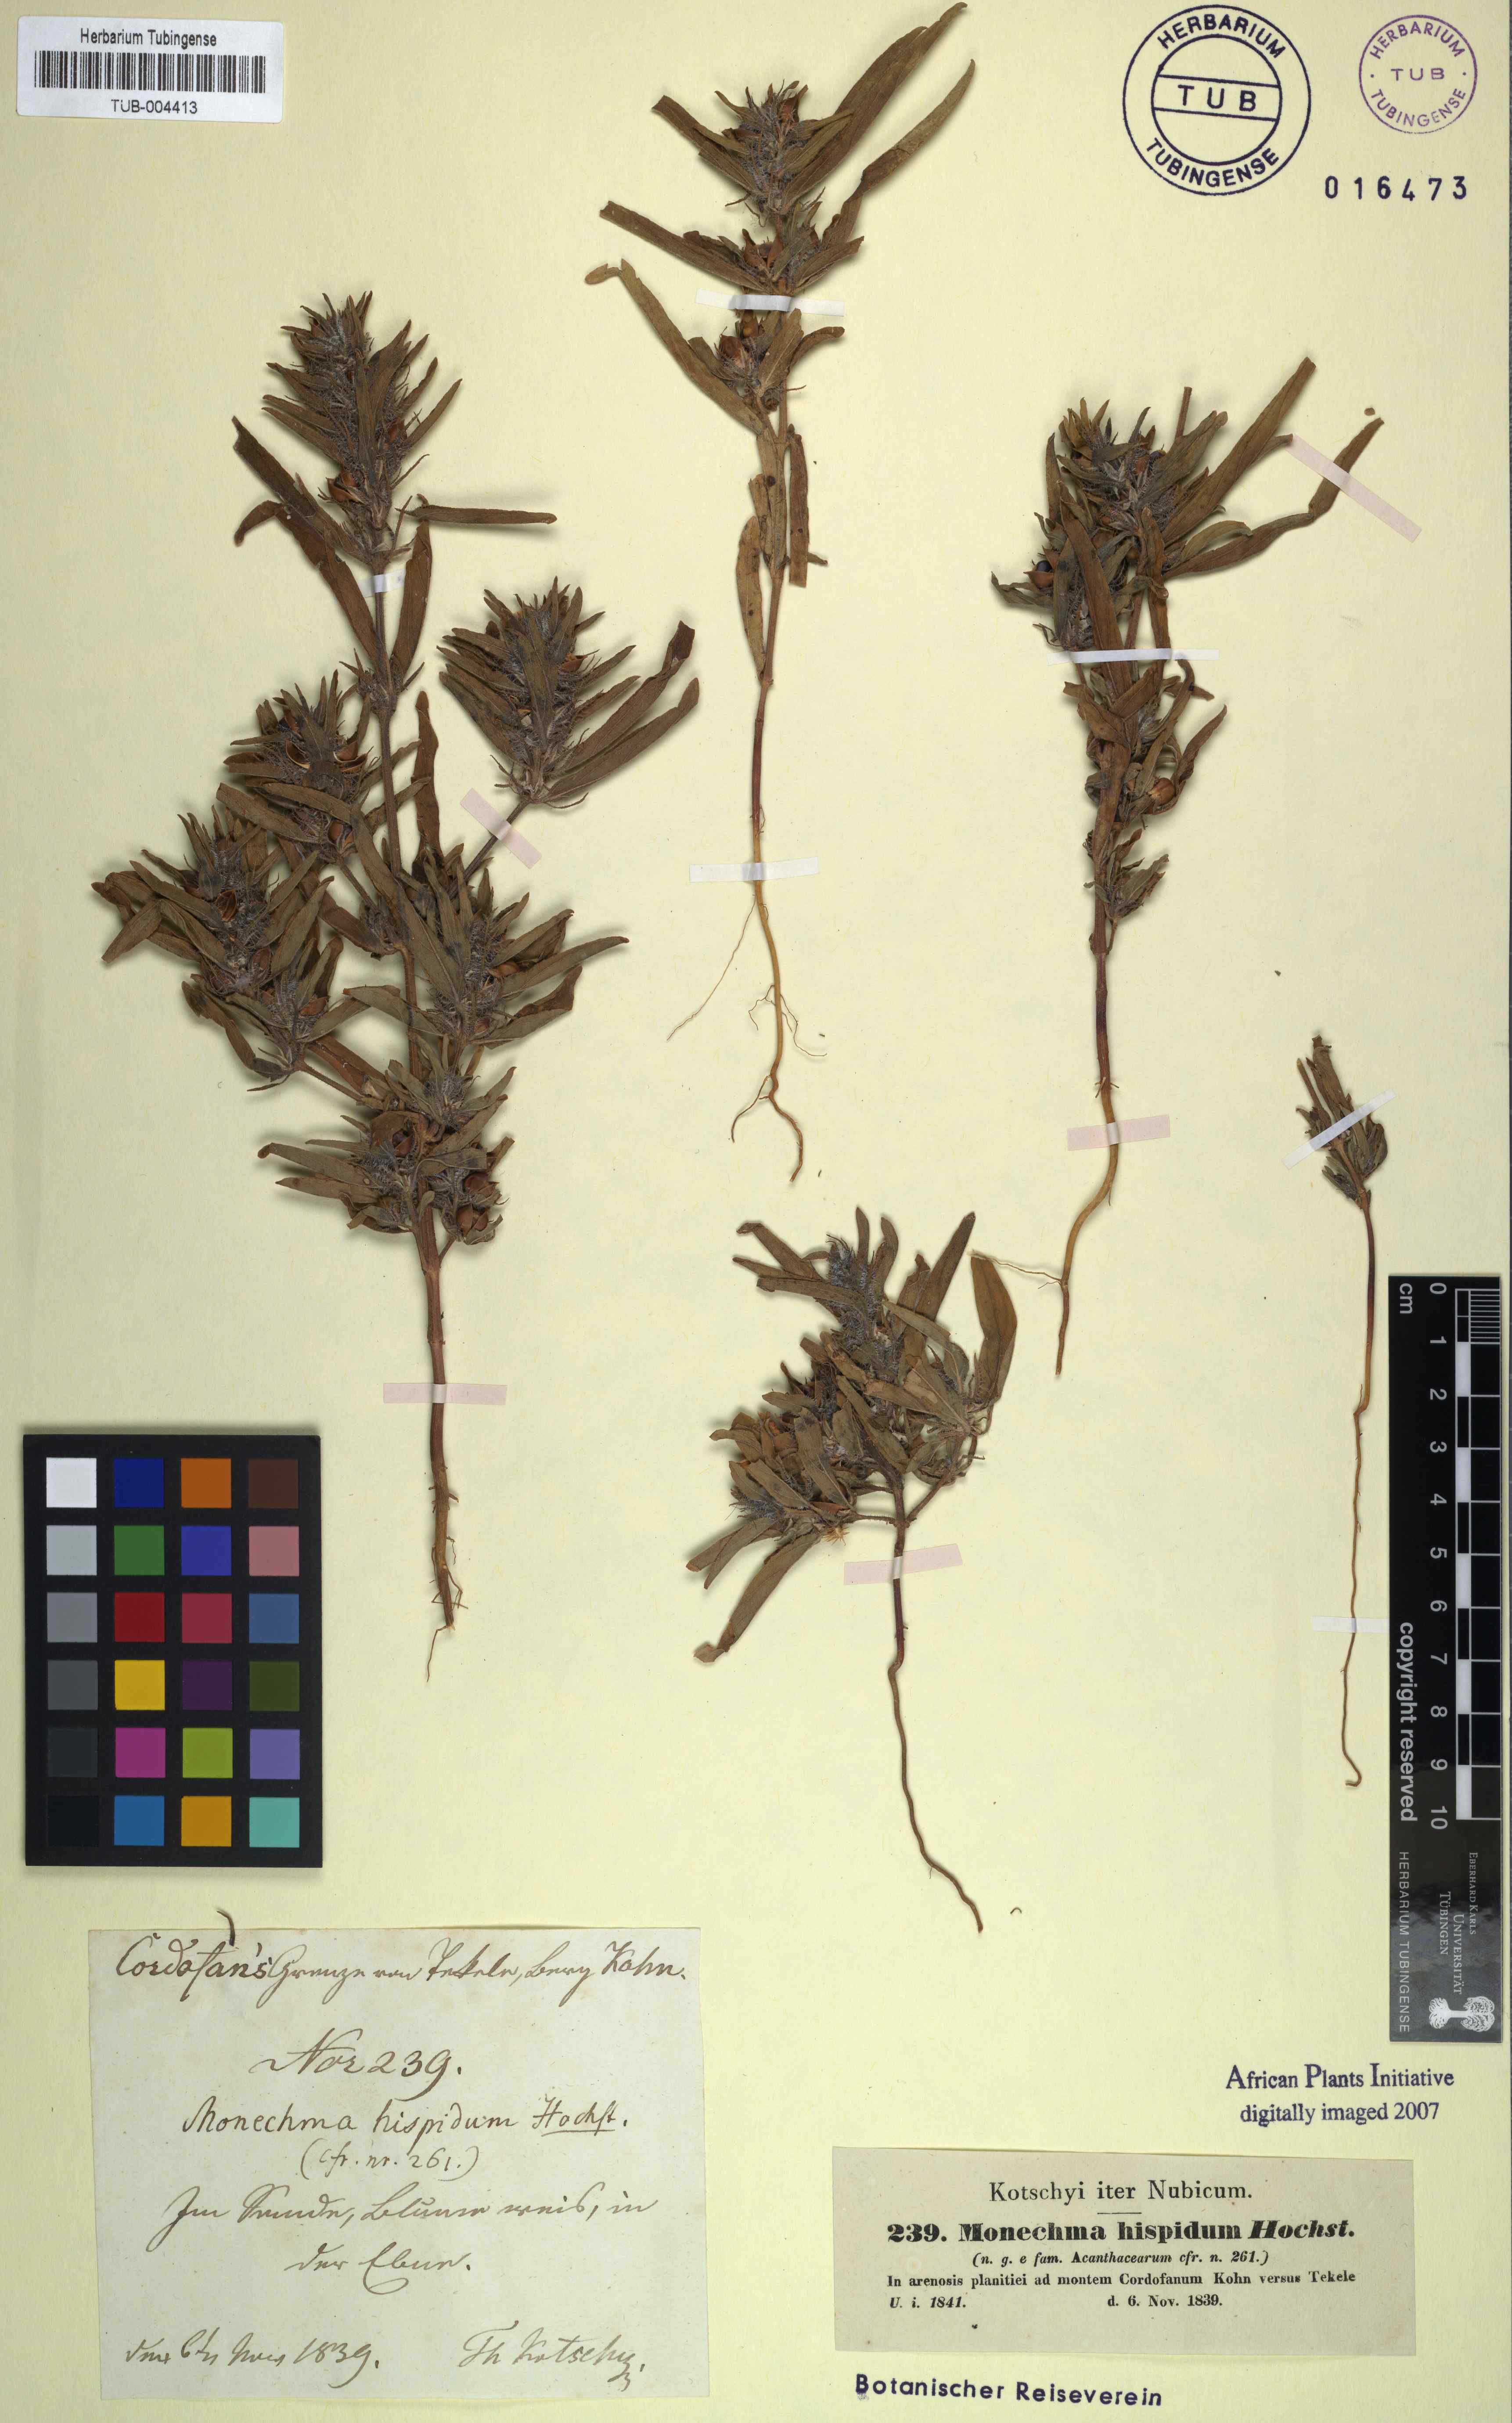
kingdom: Plantae
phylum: Tracheophyta
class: Magnoliopsida
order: Lamiales
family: Acanthaceae
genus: Pogonospermum
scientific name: Pogonospermum ciliare
